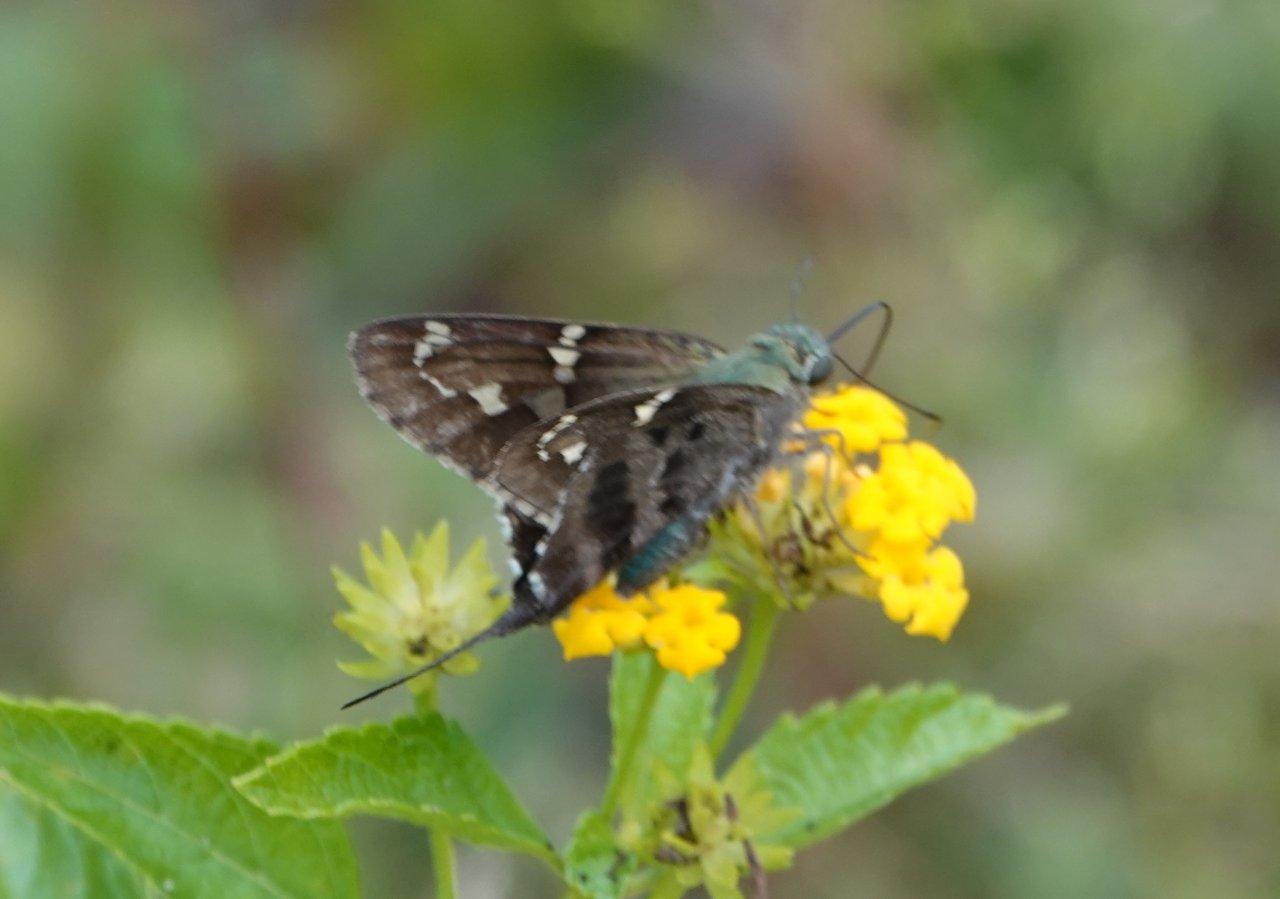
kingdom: Animalia
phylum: Arthropoda
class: Insecta
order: Lepidoptera
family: Hesperiidae
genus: Urbanus
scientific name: Urbanus proteus
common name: Long-tailed Skipper
